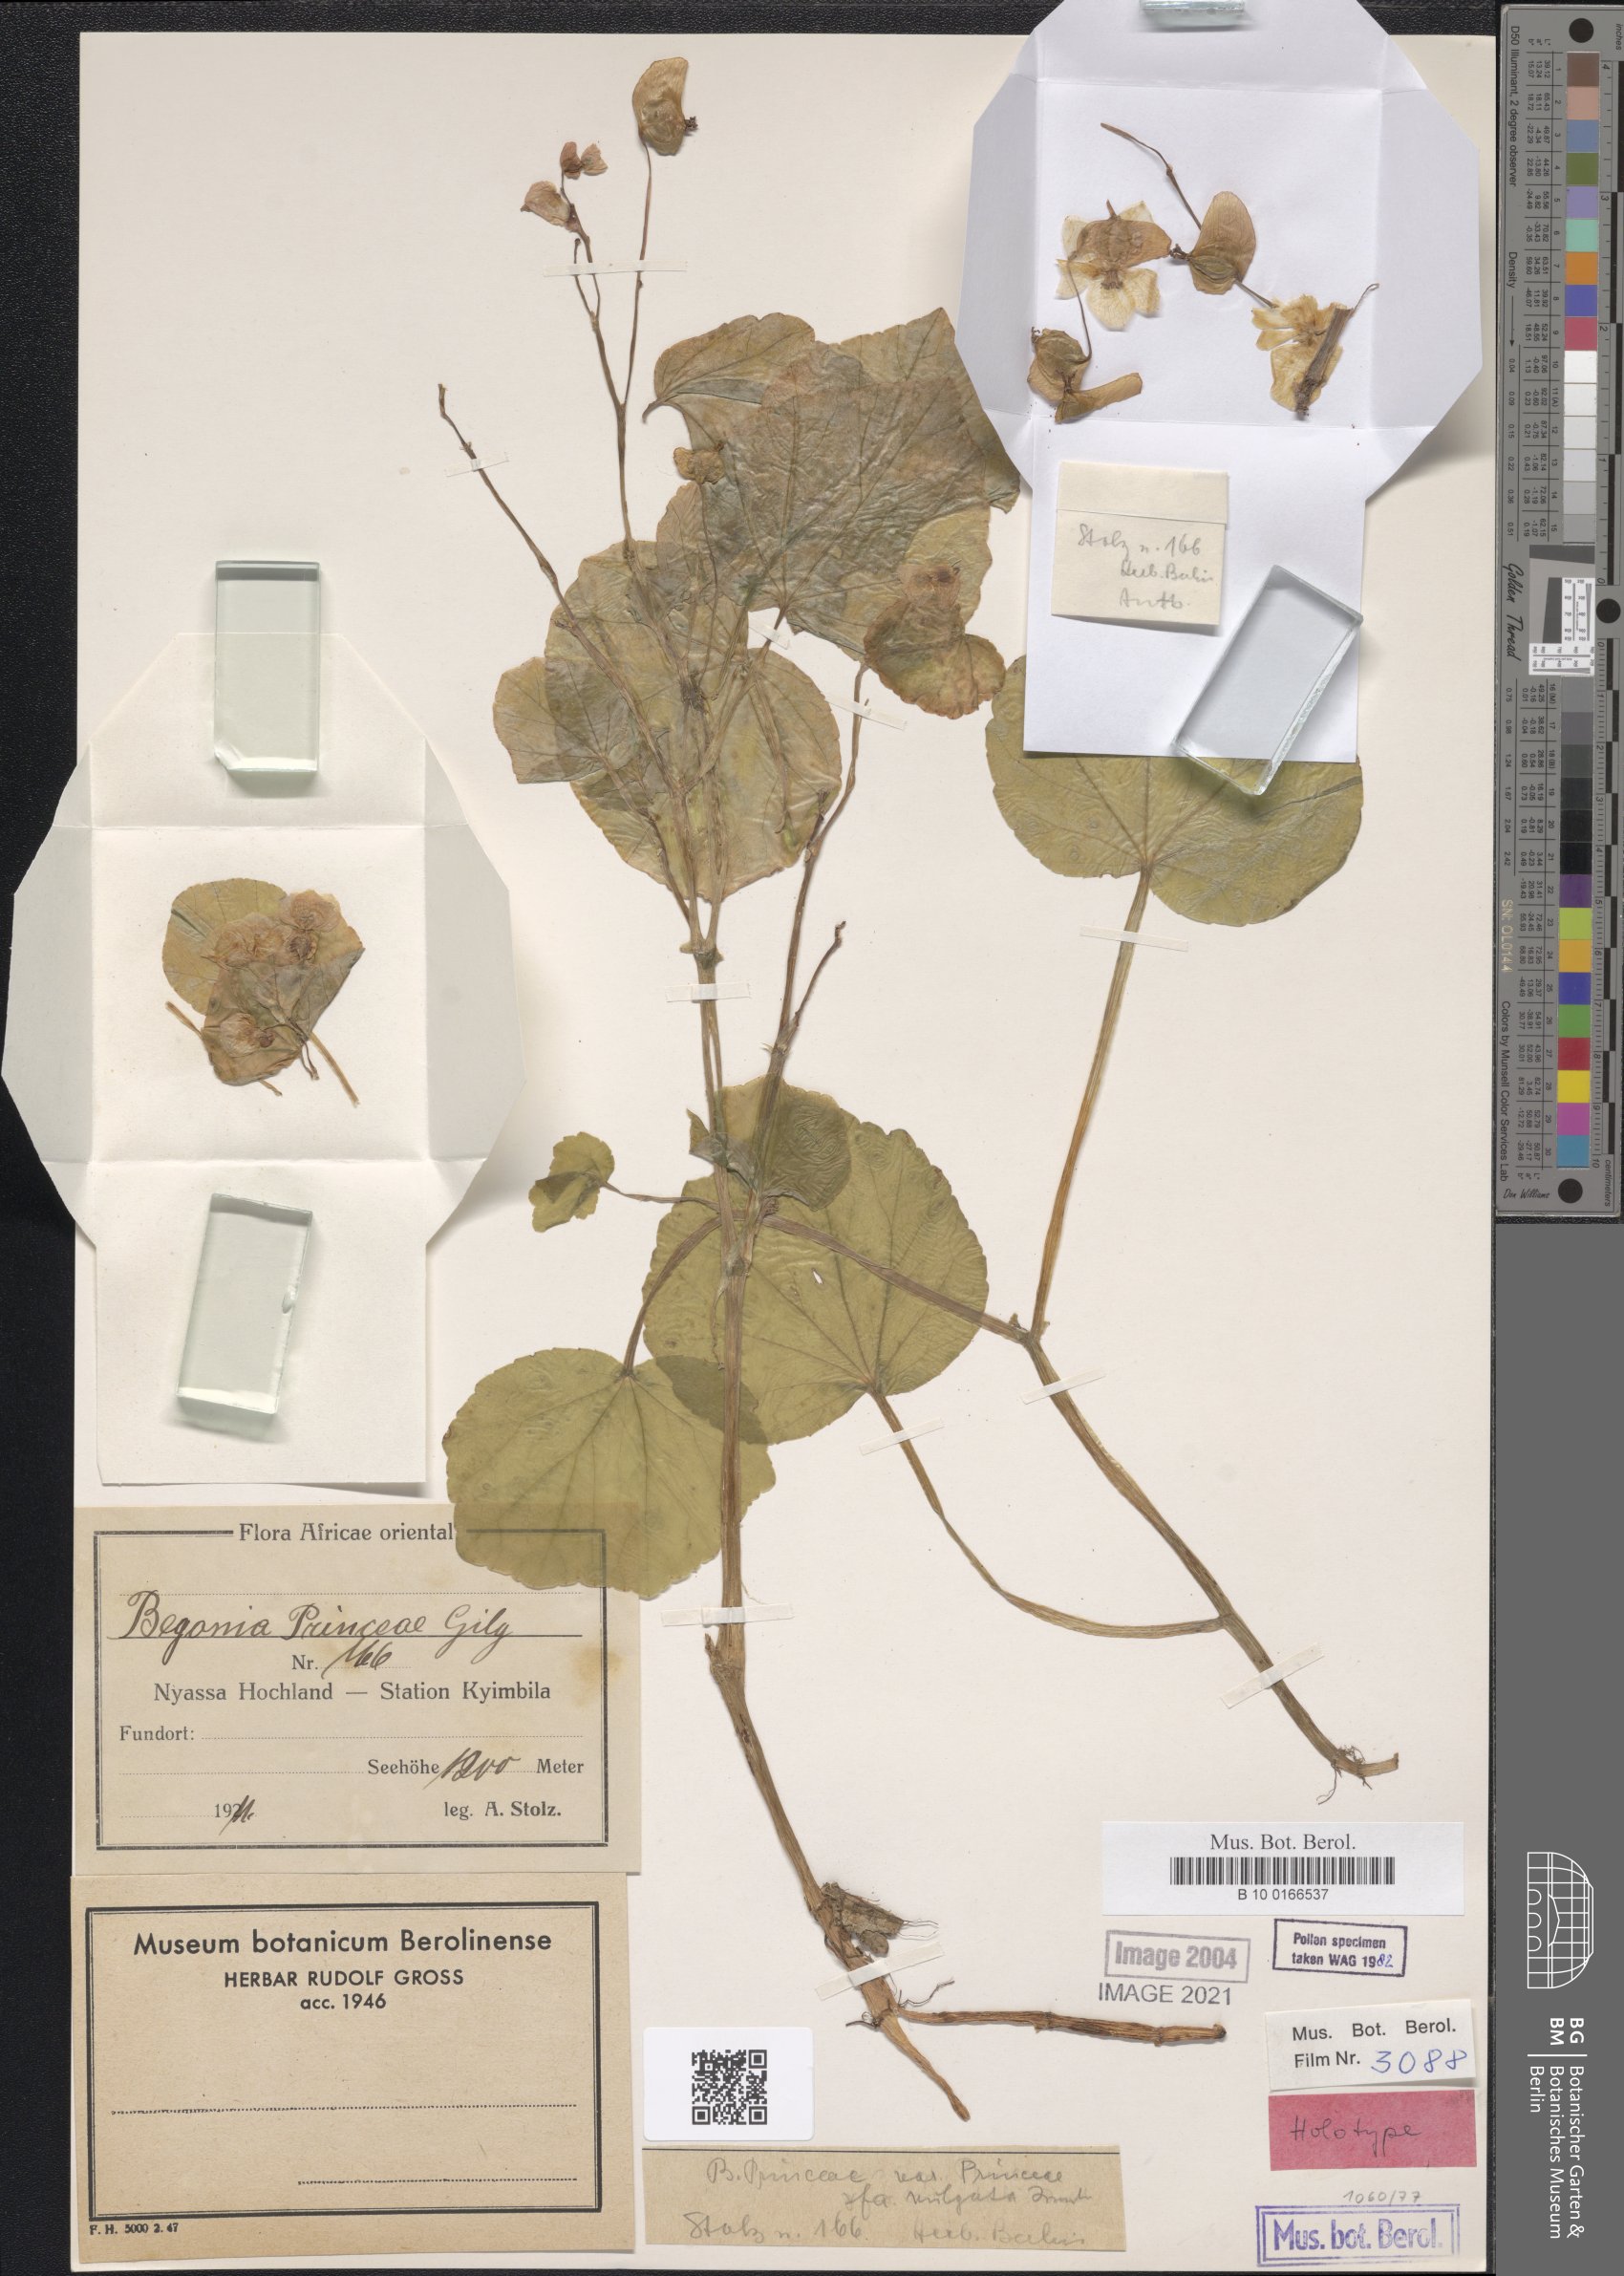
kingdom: Plantae
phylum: Tracheophyta
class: Magnoliopsida
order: Cucurbitales
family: Begoniaceae
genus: Begonia
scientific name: Begonia princeae
